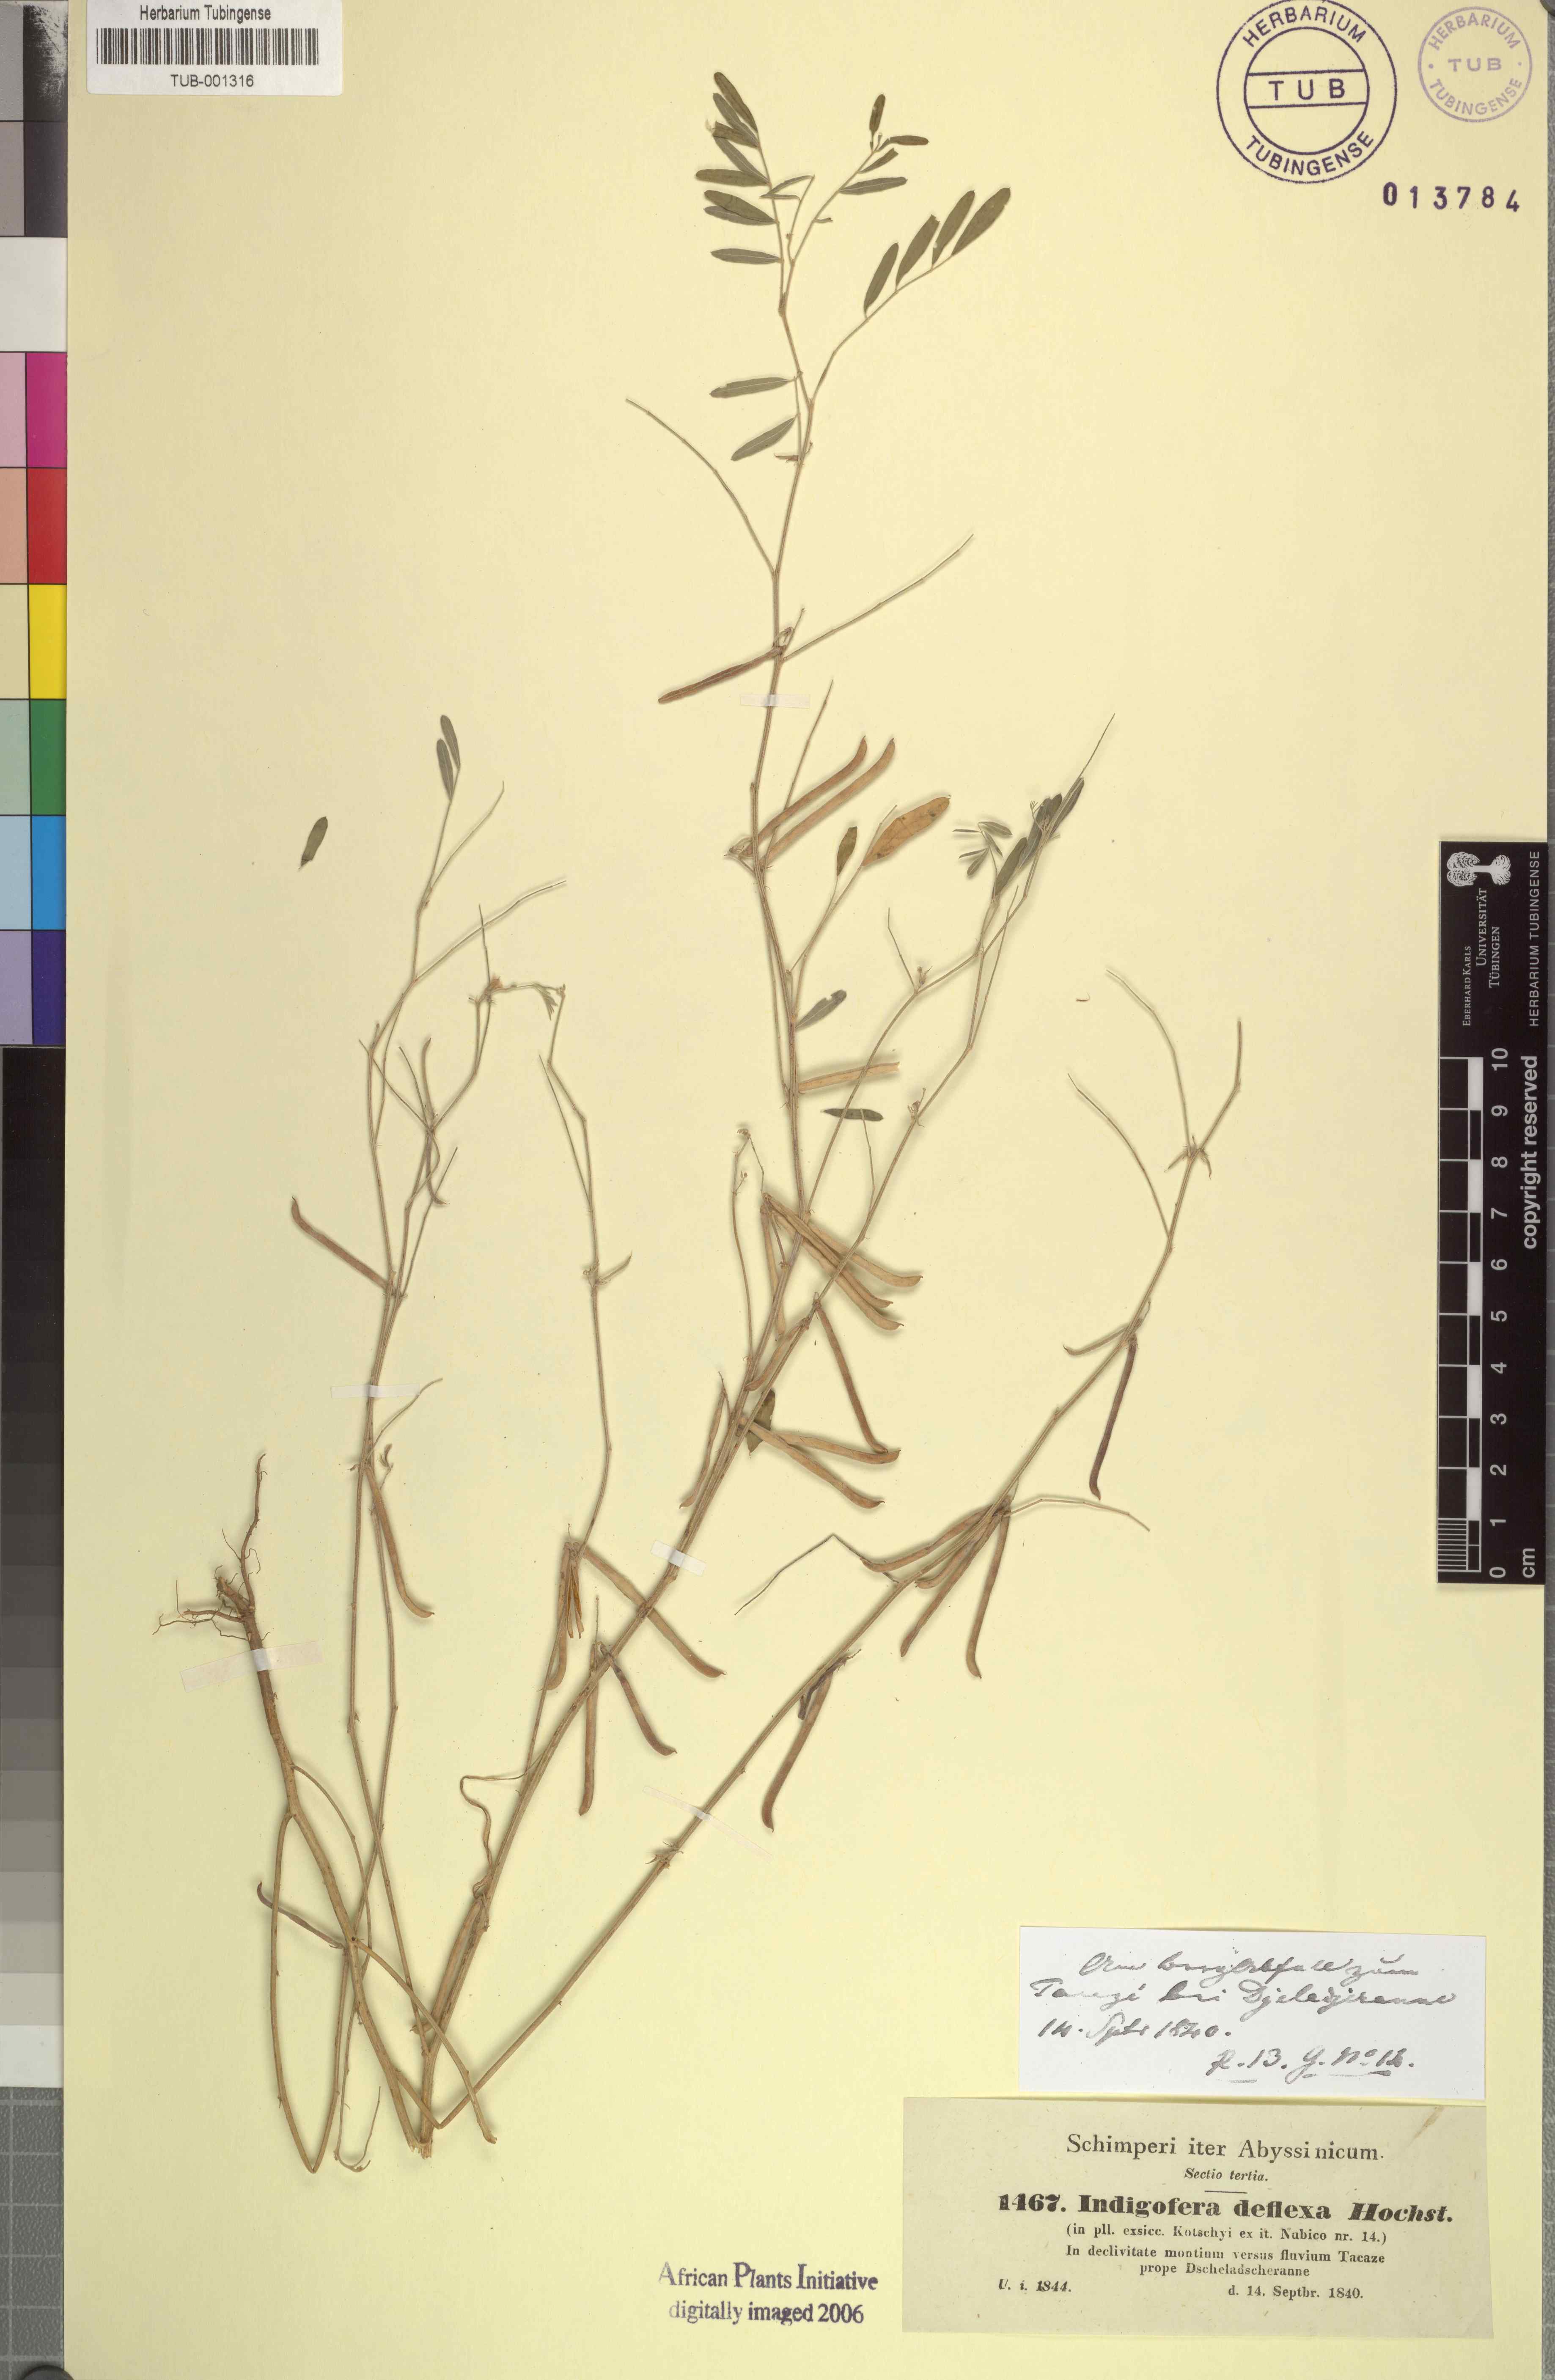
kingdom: Plantae
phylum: Tracheophyta
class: Magnoliopsida
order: Fabales
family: Fabaceae
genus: Indigastrum
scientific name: Indigastrum parviflorum
